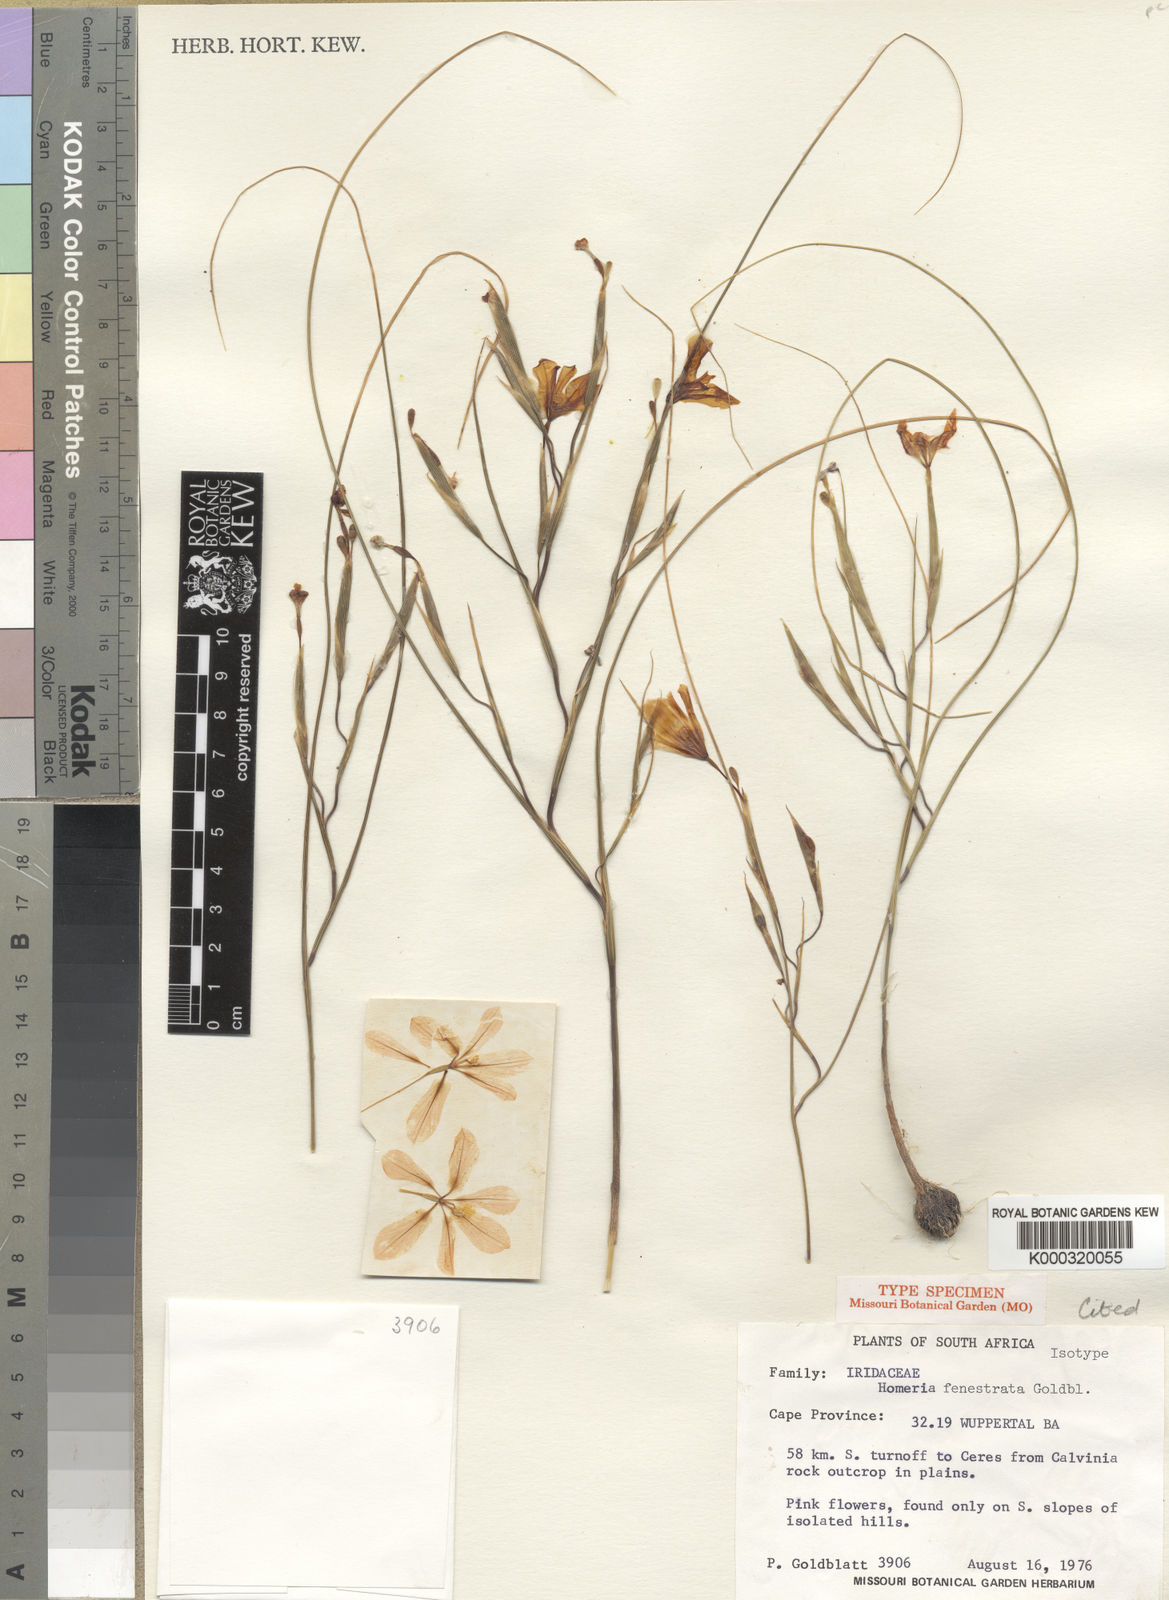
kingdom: Plantae
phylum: Tracheophyta
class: Liliopsida
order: Asparagales
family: Iridaceae
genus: Moraea
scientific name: Moraea fenestrata
